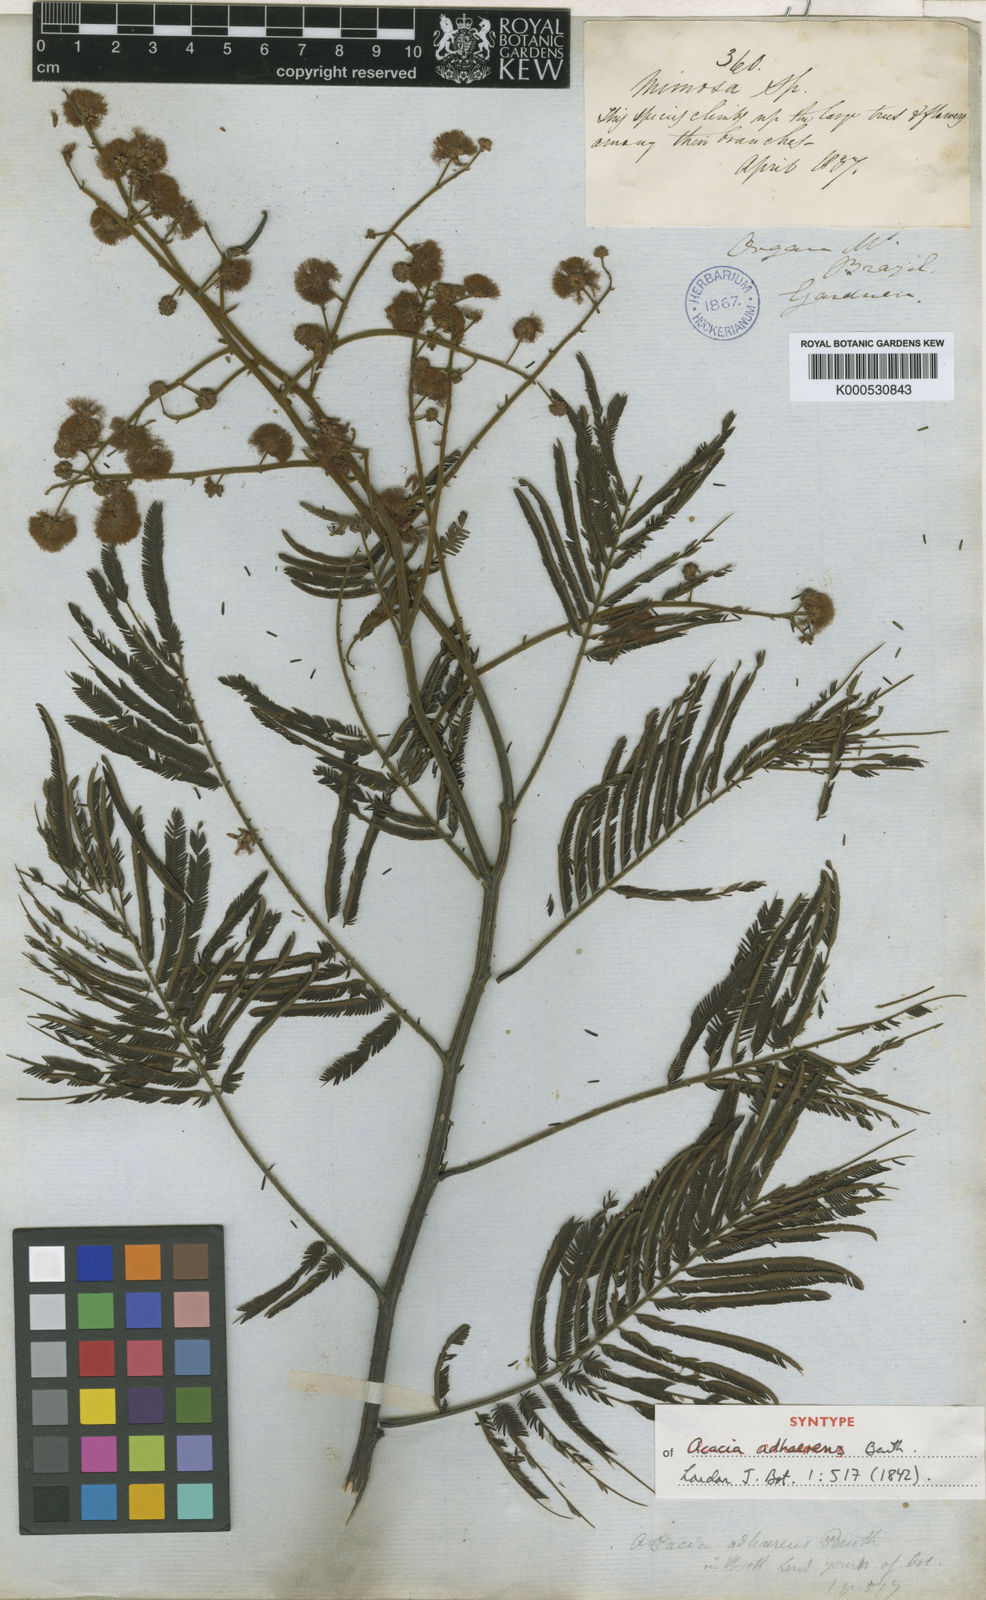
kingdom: Plantae
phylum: Tracheophyta
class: Magnoliopsida
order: Fabales
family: Fabaceae
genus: Senegalia
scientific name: Senegalia martiusiana
